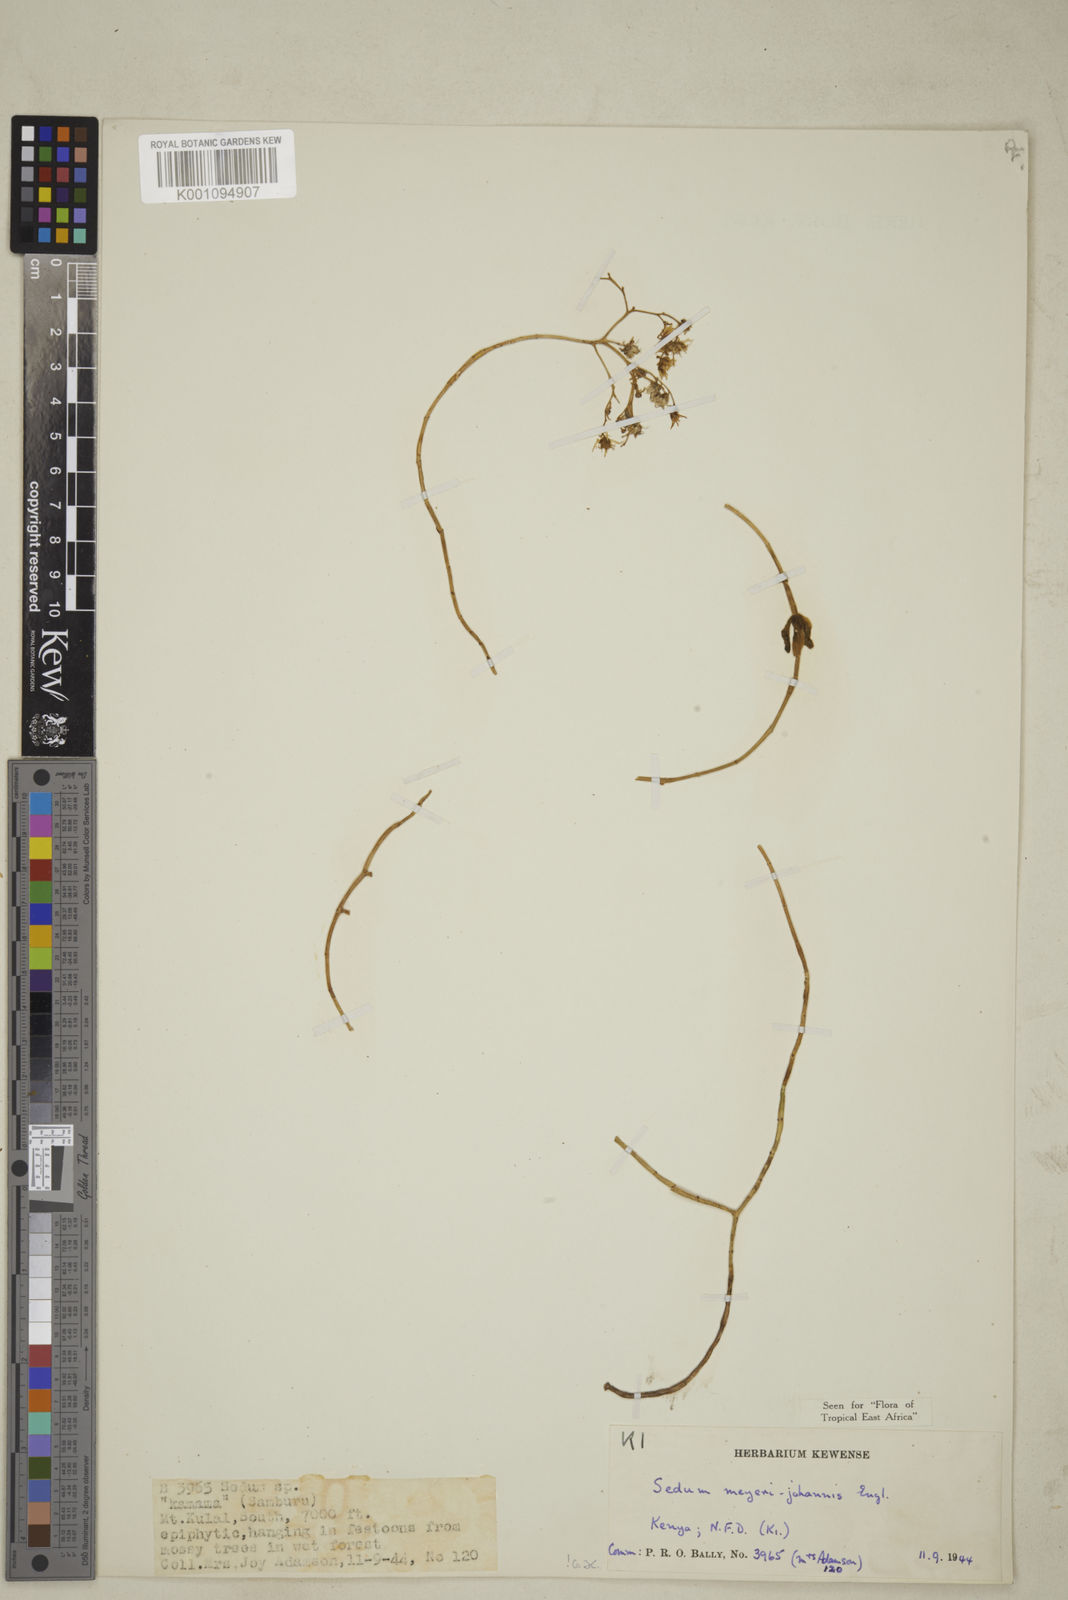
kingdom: Plantae
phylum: Tracheophyta
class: Magnoliopsida
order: Saxifragales
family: Crassulaceae
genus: Sedum
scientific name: Sedum meyeri-johannis
